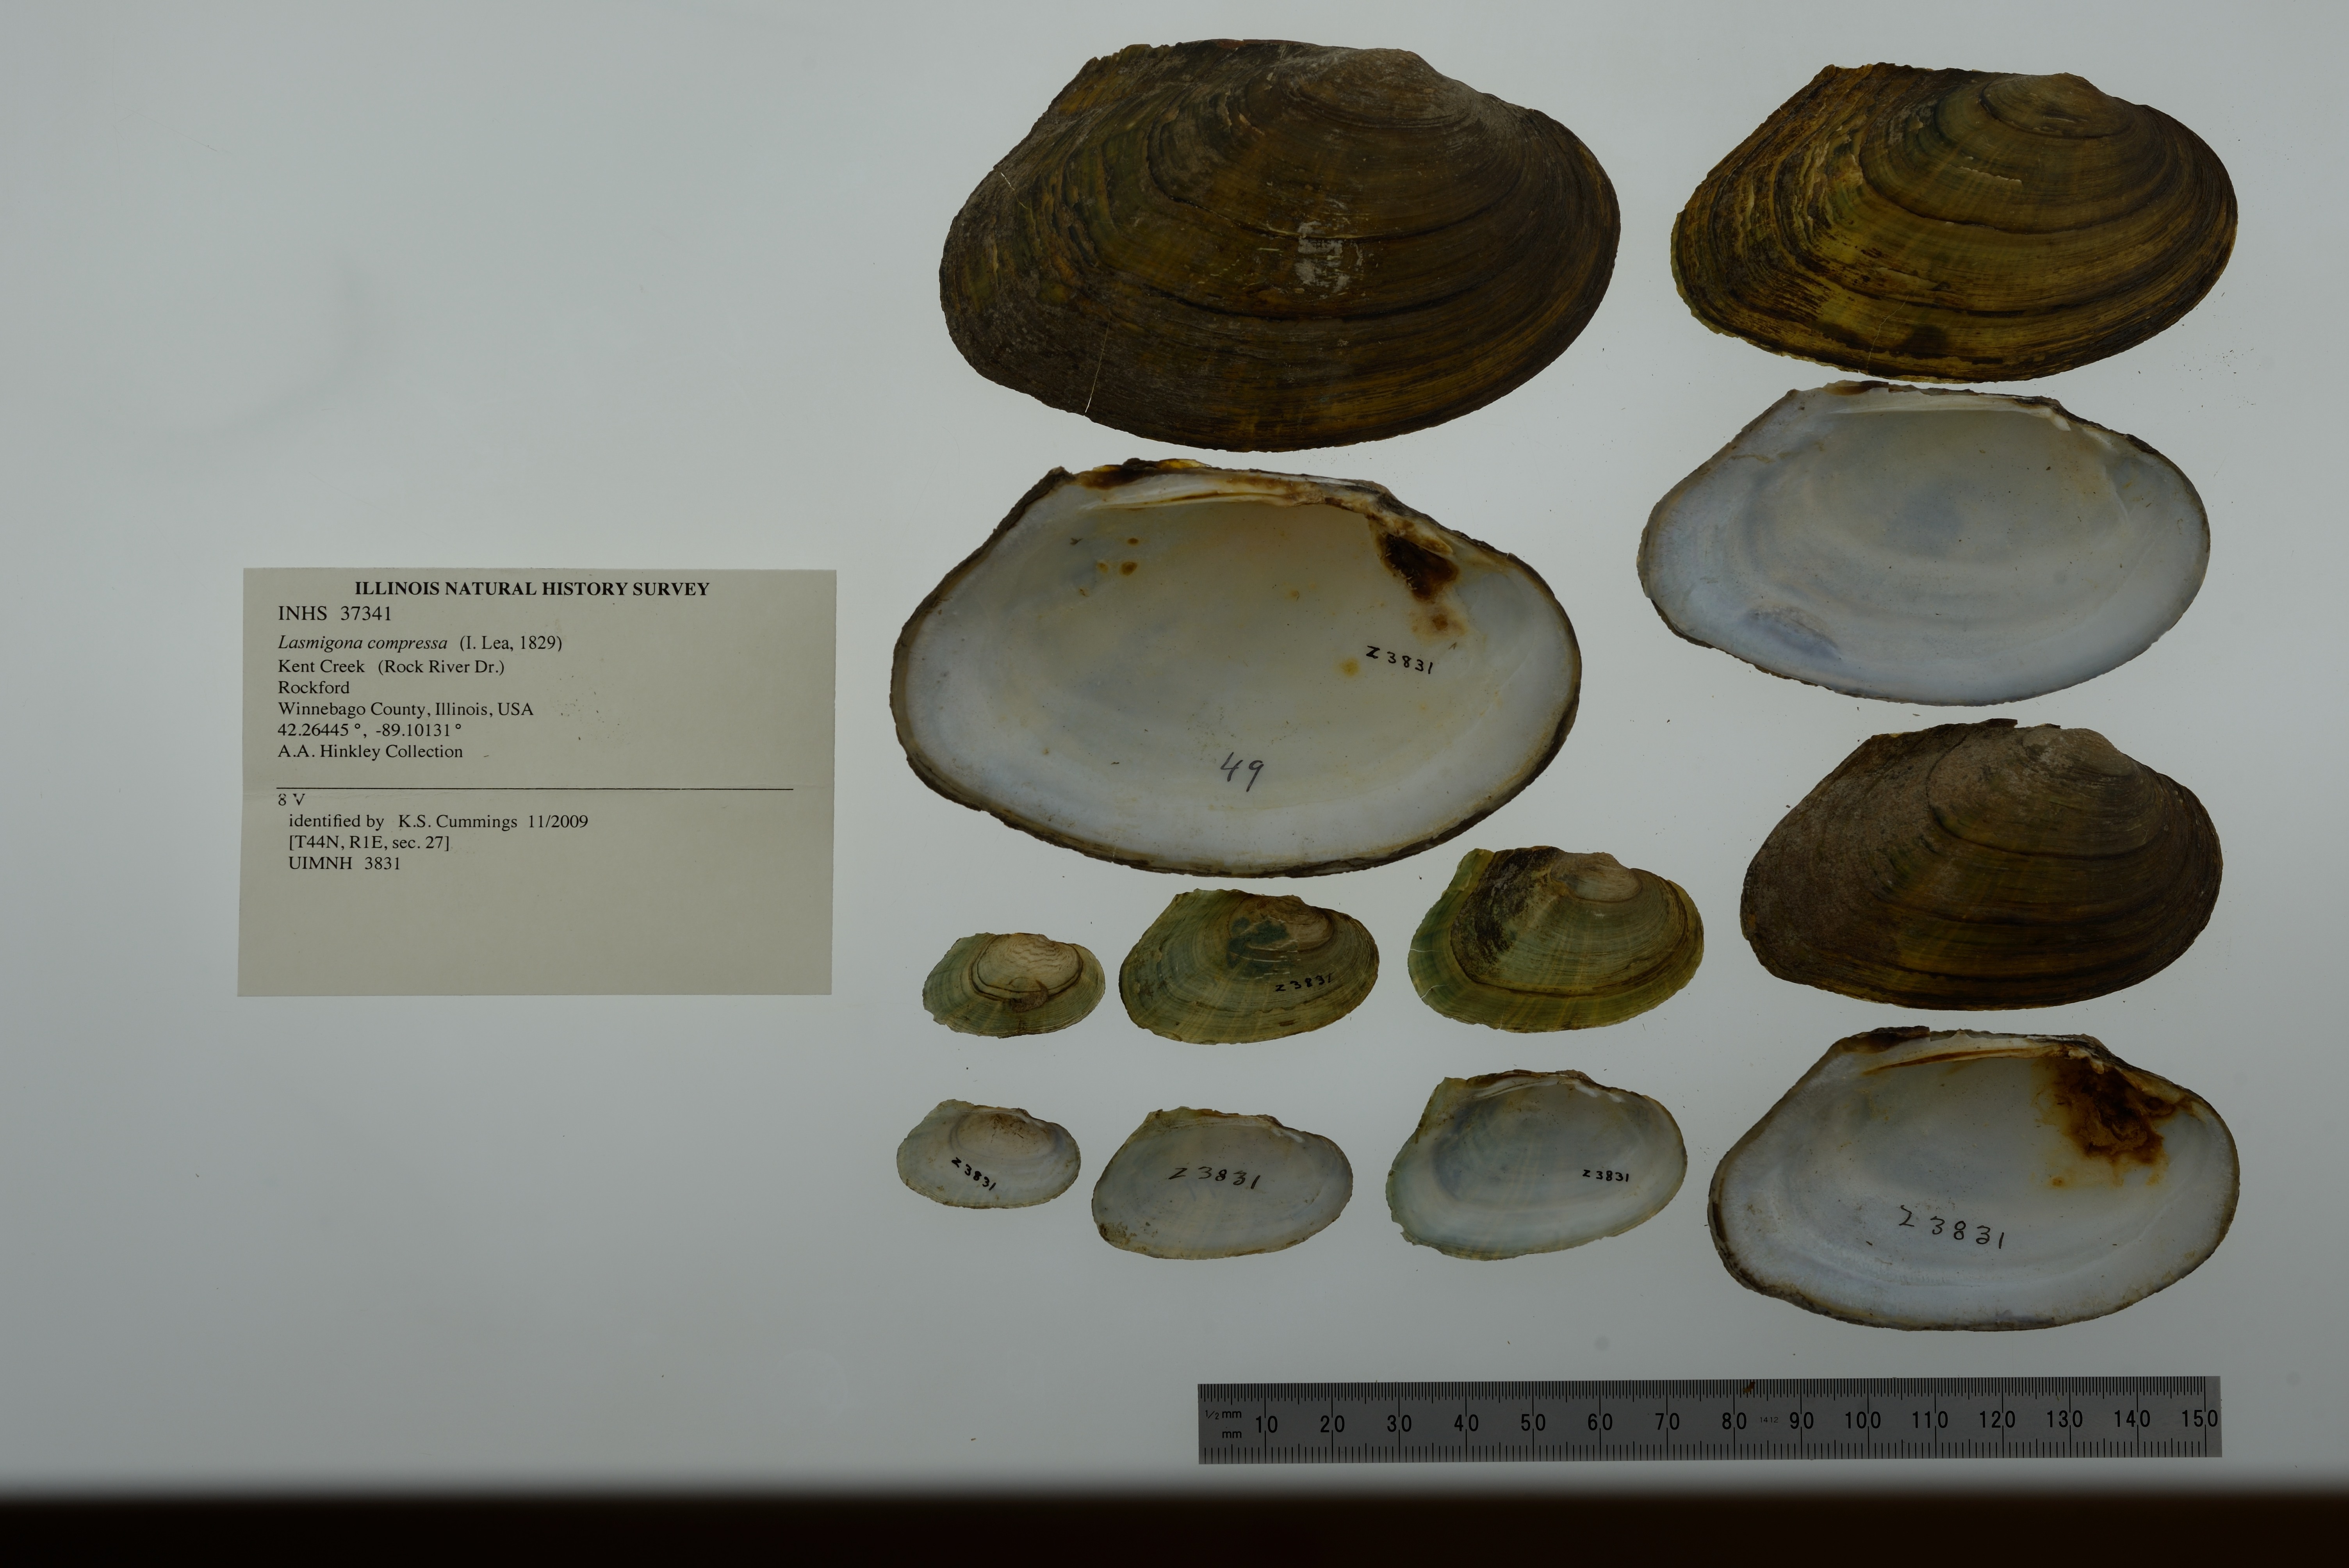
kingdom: Animalia
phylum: Mollusca
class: Bivalvia
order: Unionida
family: Unionidae
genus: Lasmigona
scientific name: Lasmigona compressa
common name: Creek heelsplitter
